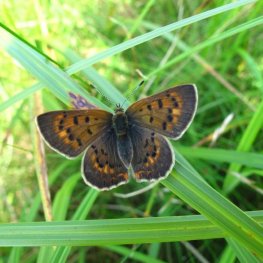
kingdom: Animalia
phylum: Arthropoda
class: Insecta
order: Lepidoptera
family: Lycaenidae
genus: Epidemia
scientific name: Epidemia dorcas
